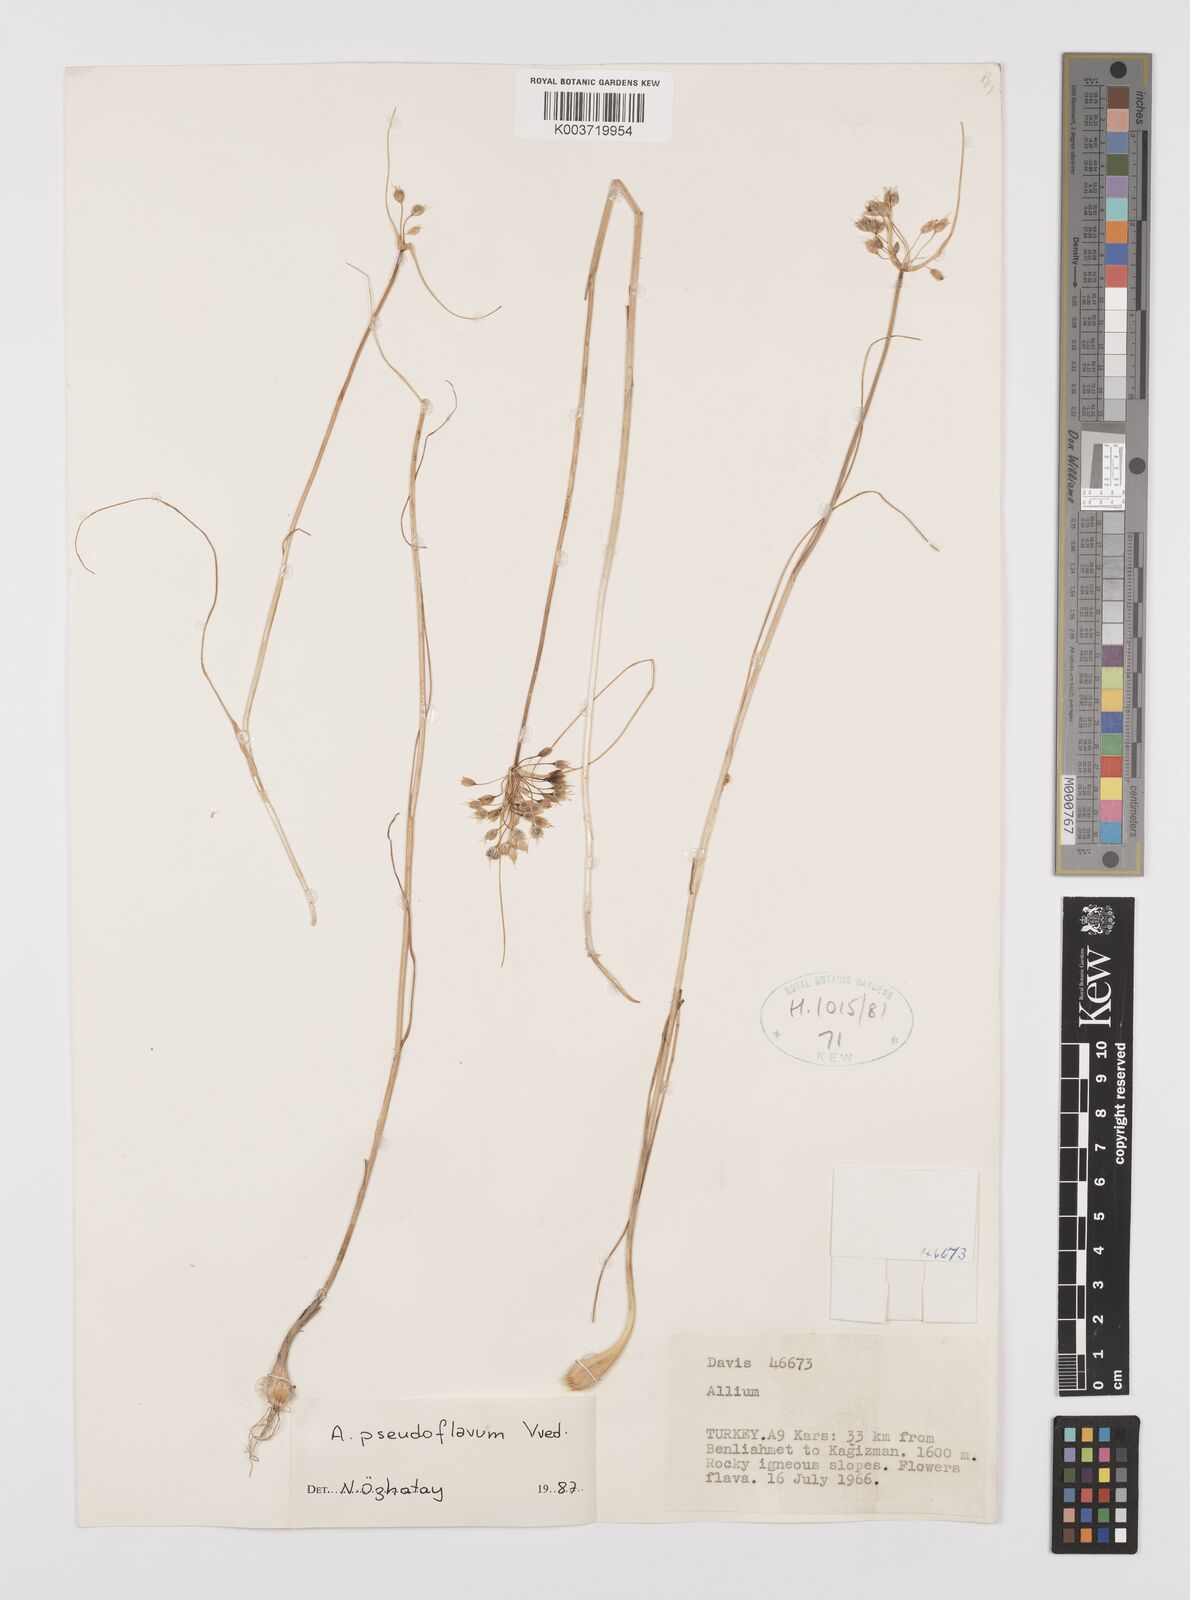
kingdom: Plantae
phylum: Tracheophyta
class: Liliopsida
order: Asparagales
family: Amaryllidaceae
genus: Allium
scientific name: Allium pseudoflavum
